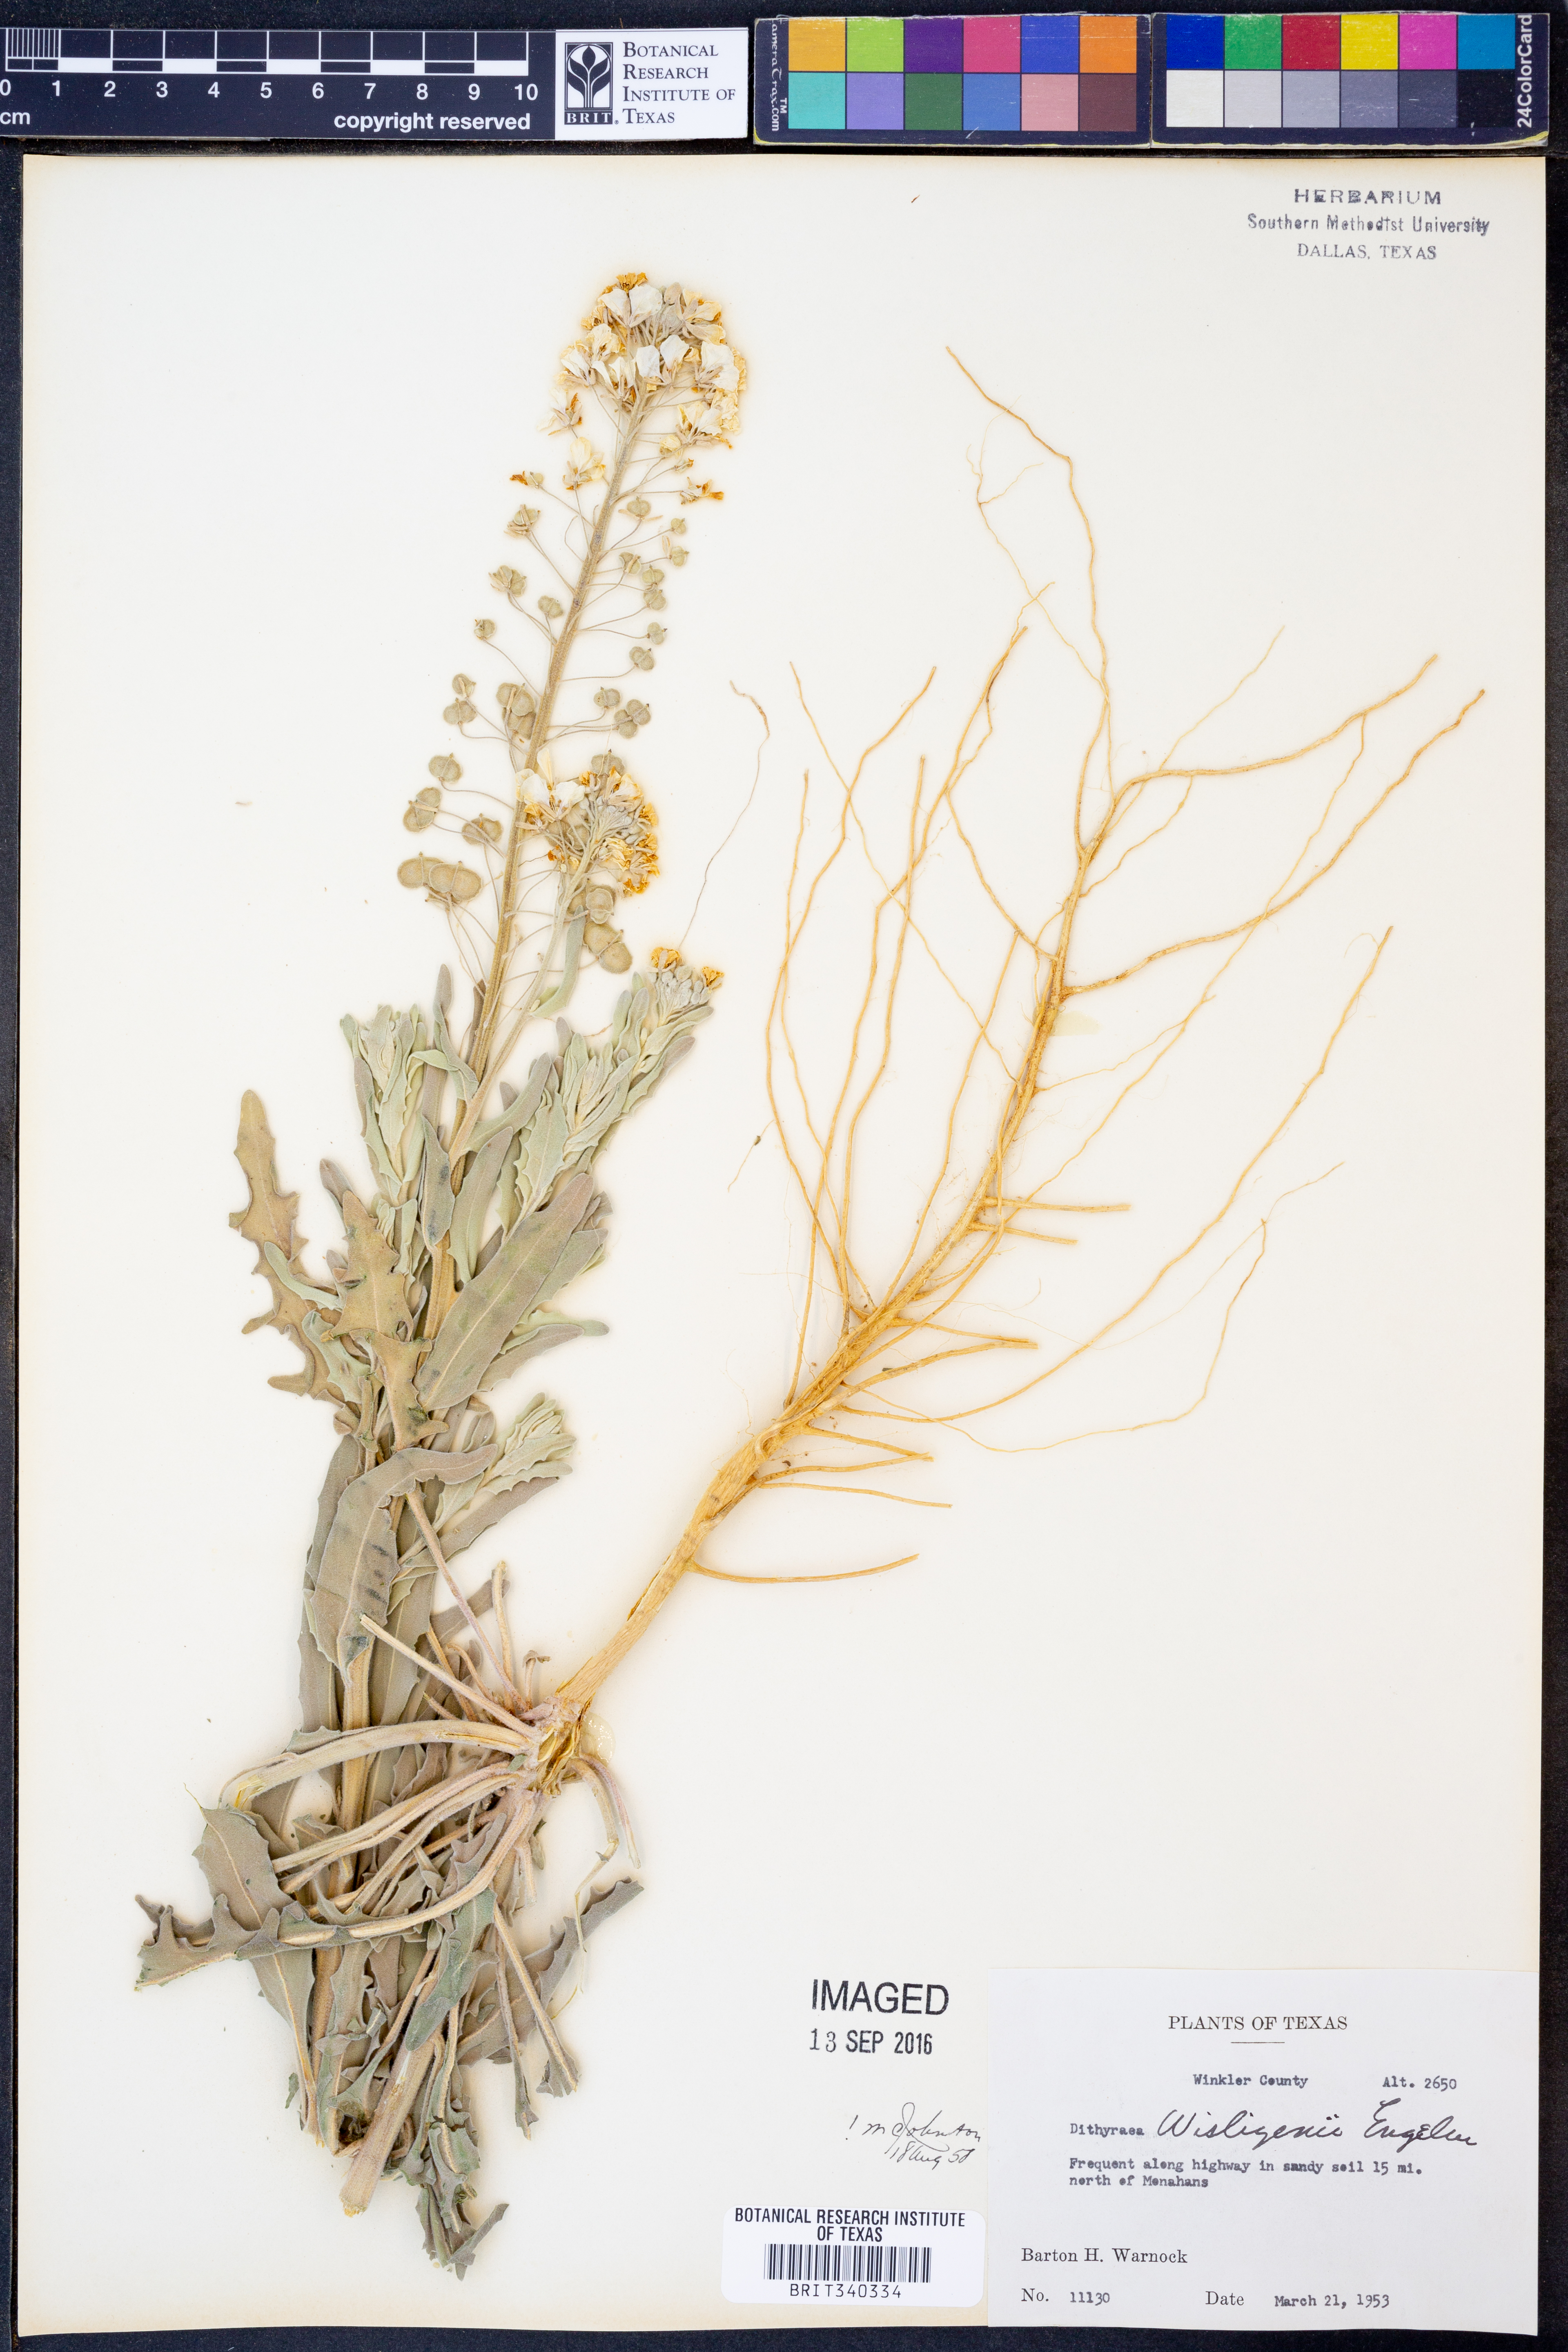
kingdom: Plantae
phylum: Tracheophyta
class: Magnoliopsida
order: Brassicales
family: Brassicaceae
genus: Dimorphocarpa
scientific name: Dimorphocarpa wislizenii
